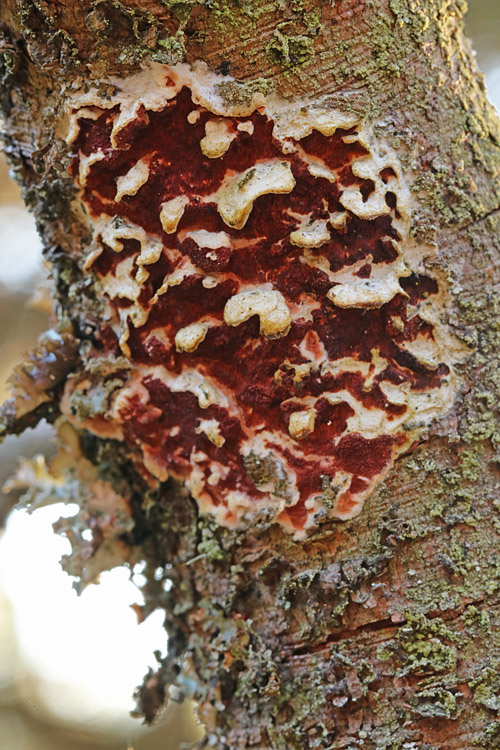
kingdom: Fungi
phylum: Basidiomycota
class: Agaricomycetes
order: Polyporales
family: Irpicaceae
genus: Meruliopsis
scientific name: Meruliopsis taxicola
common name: purpurbrun foldporesvamp
